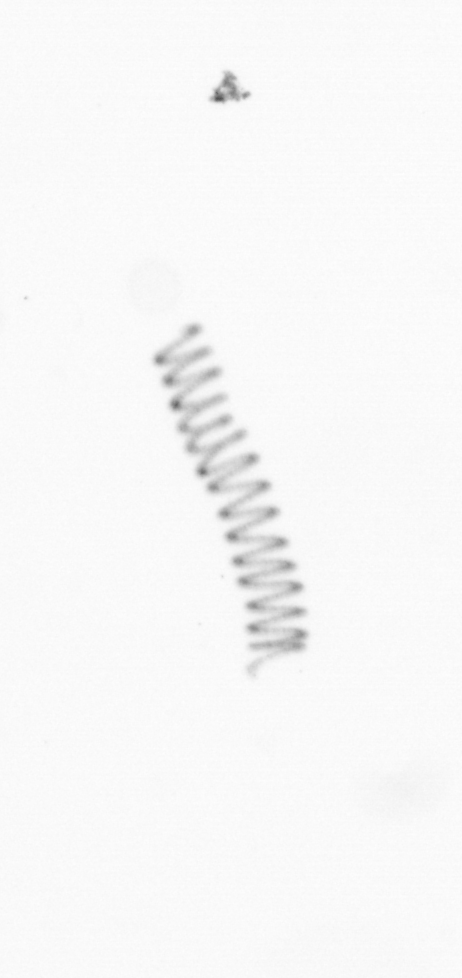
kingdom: Chromista
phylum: Ochrophyta
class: Bacillariophyceae
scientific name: Bacillariophyceae
